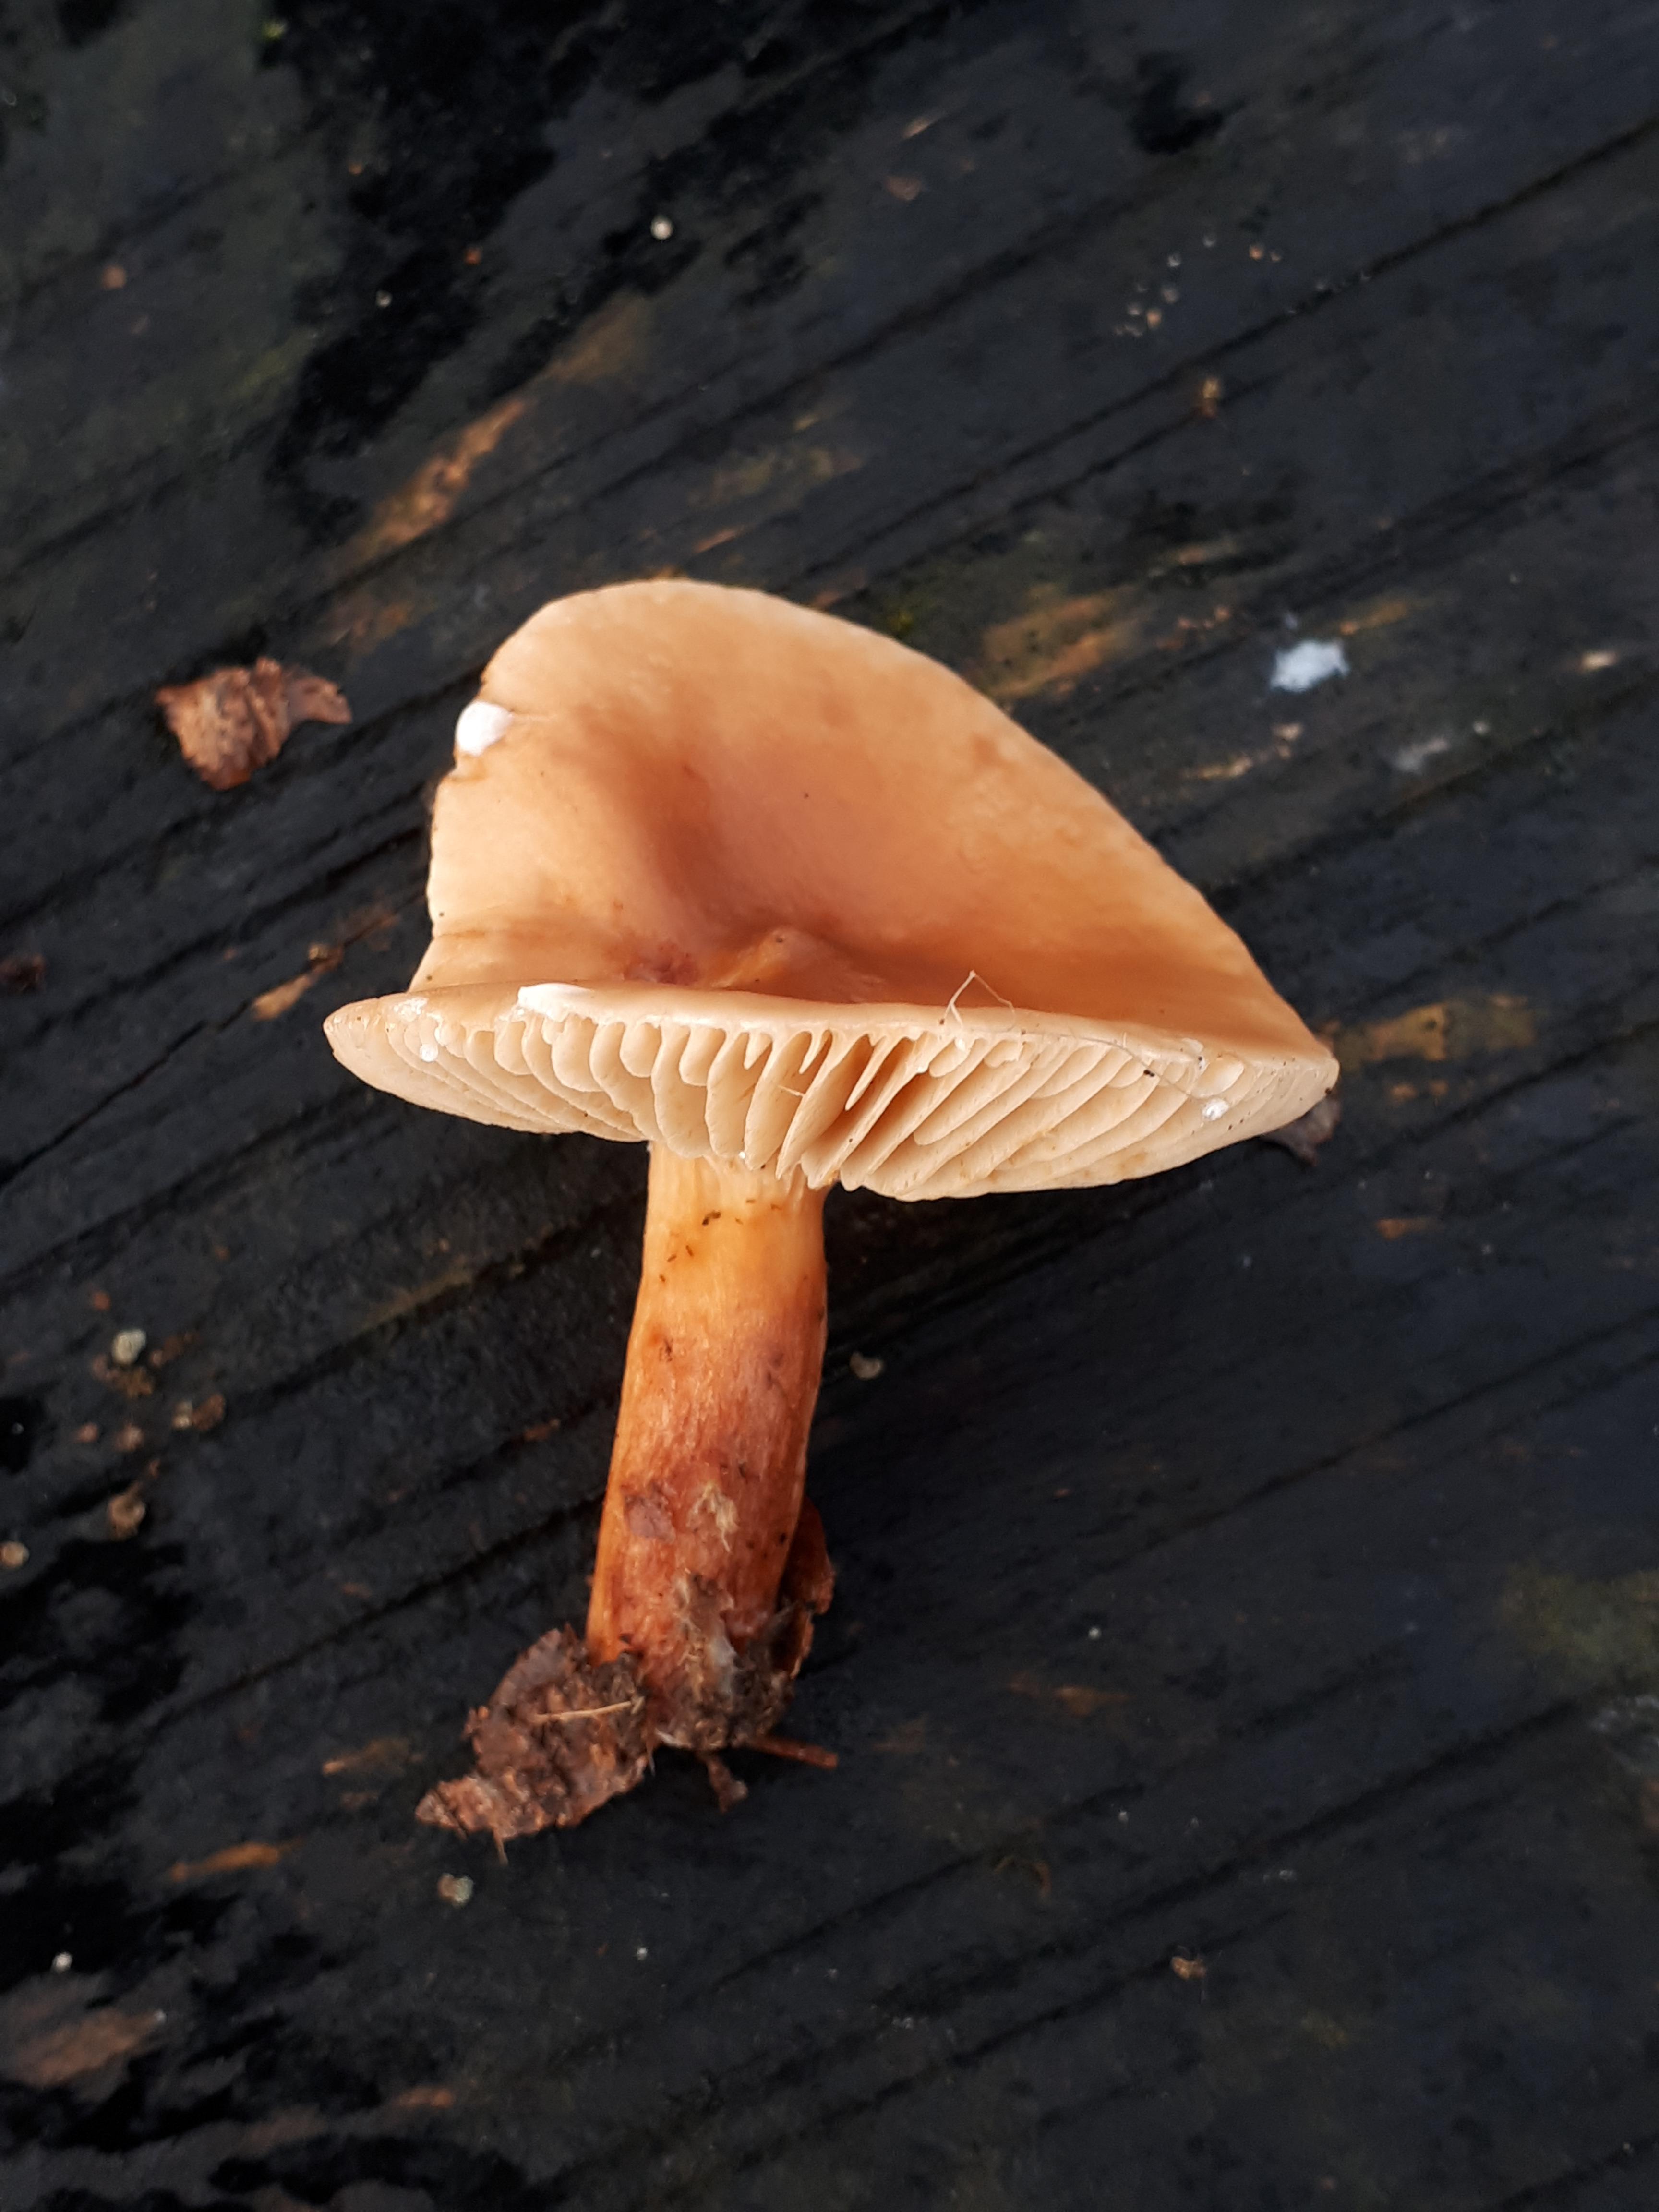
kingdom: Fungi
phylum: Basidiomycota
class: Agaricomycetes
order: Russulales
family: Russulaceae
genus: Lactarius
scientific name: Lactarius subdulcis
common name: sødlig mælkehat
